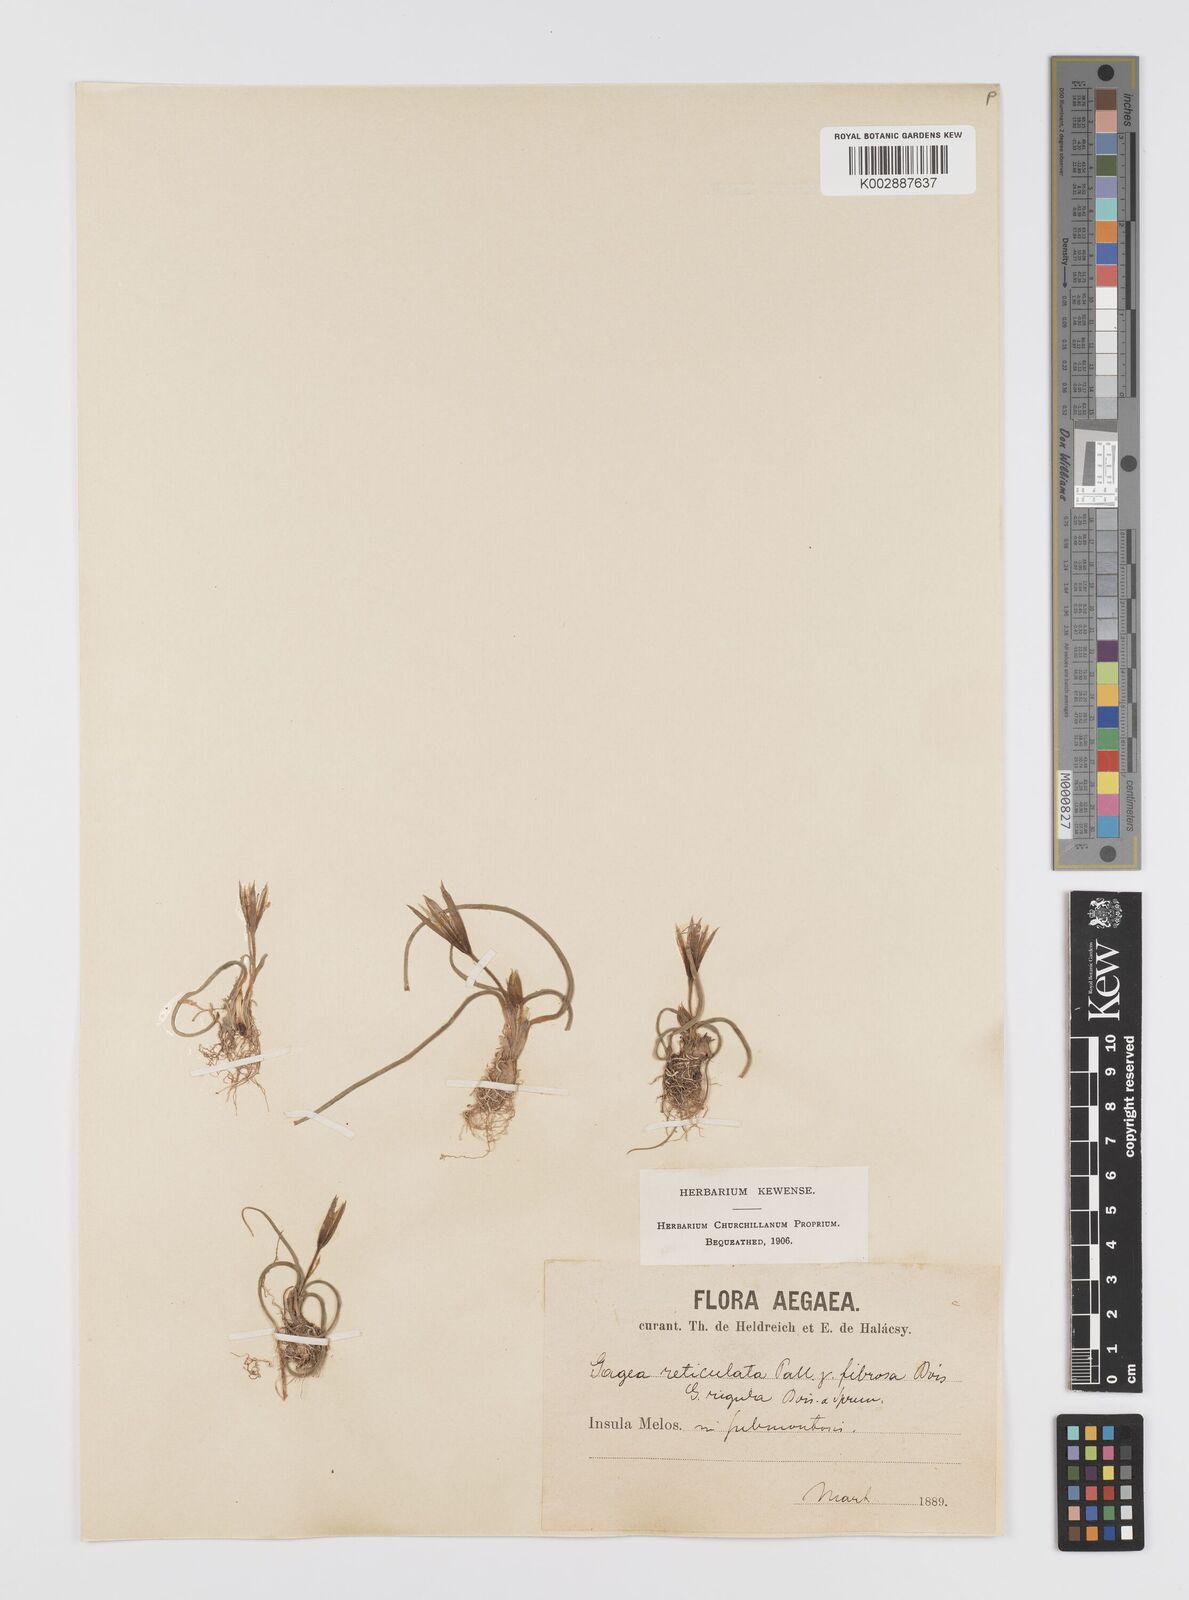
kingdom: Plantae
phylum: Tracheophyta
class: Liliopsida
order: Liliales
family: Liliaceae
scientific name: Liliaceae
